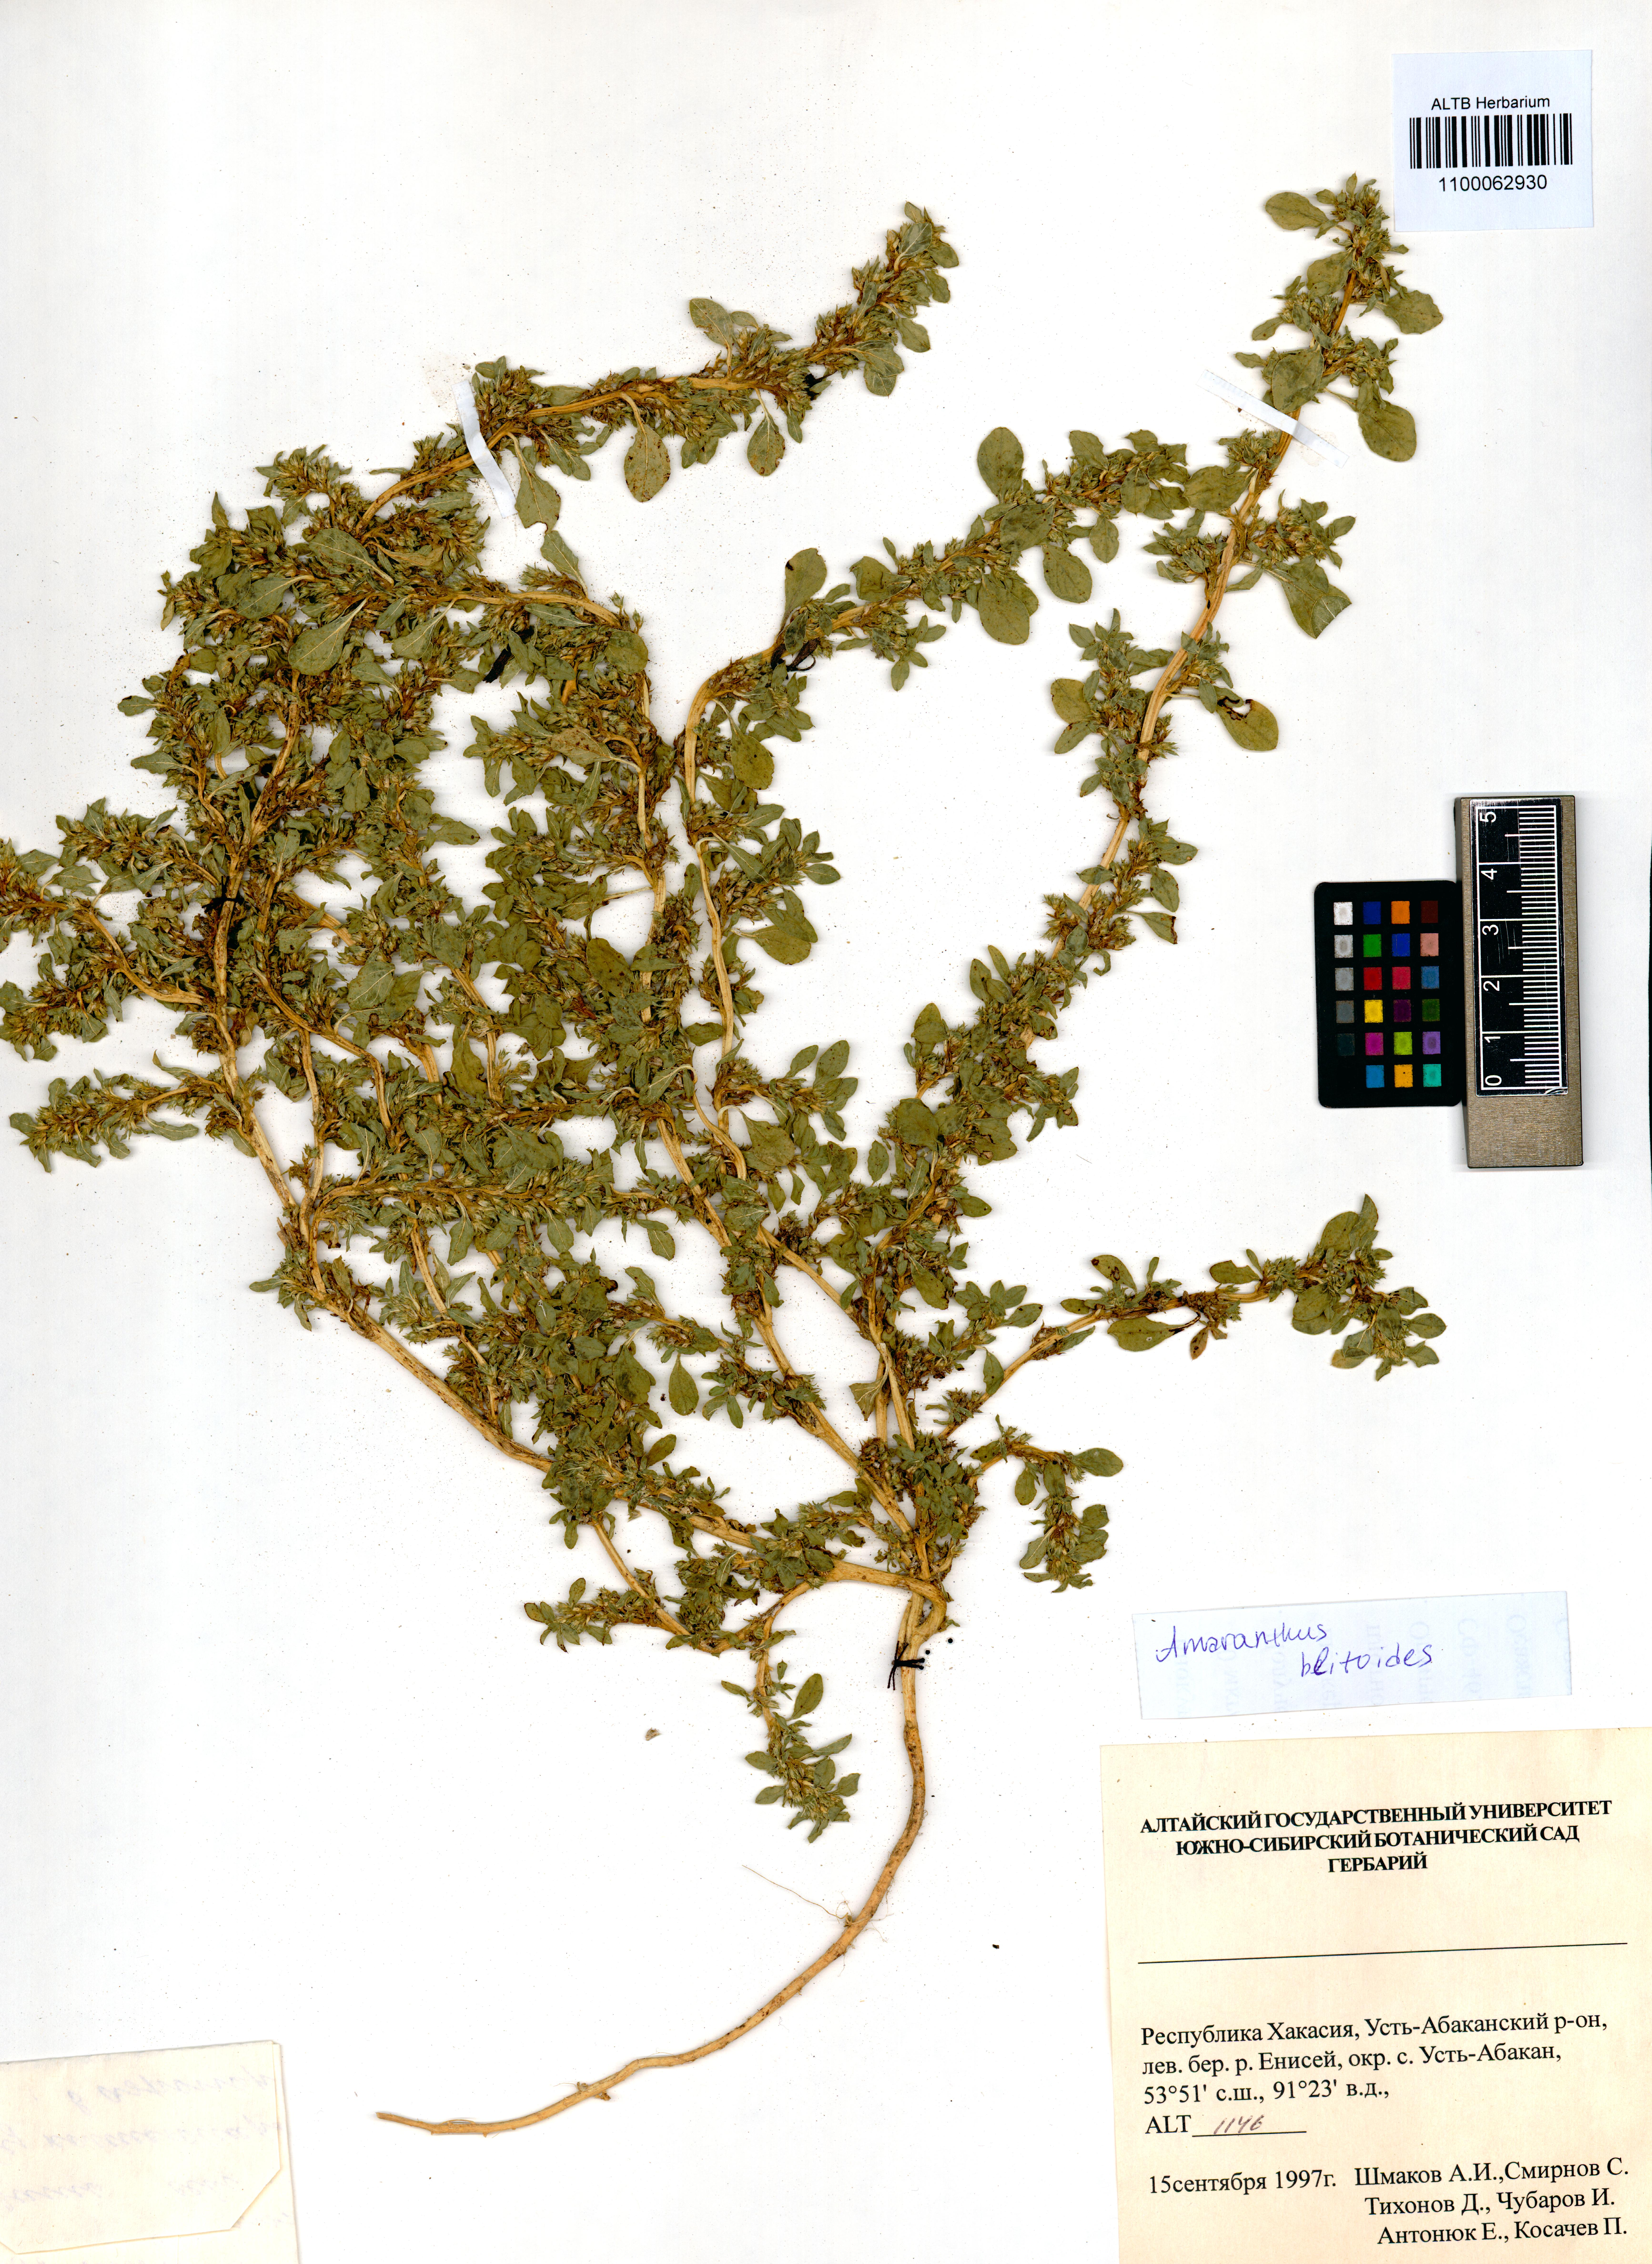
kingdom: Plantae
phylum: Tracheophyta
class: Magnoliopsida
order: Caryophyllales
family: Amaranthaceae
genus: Amaranthus
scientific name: Amaranthus blitoides
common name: Prostrate pigweed
